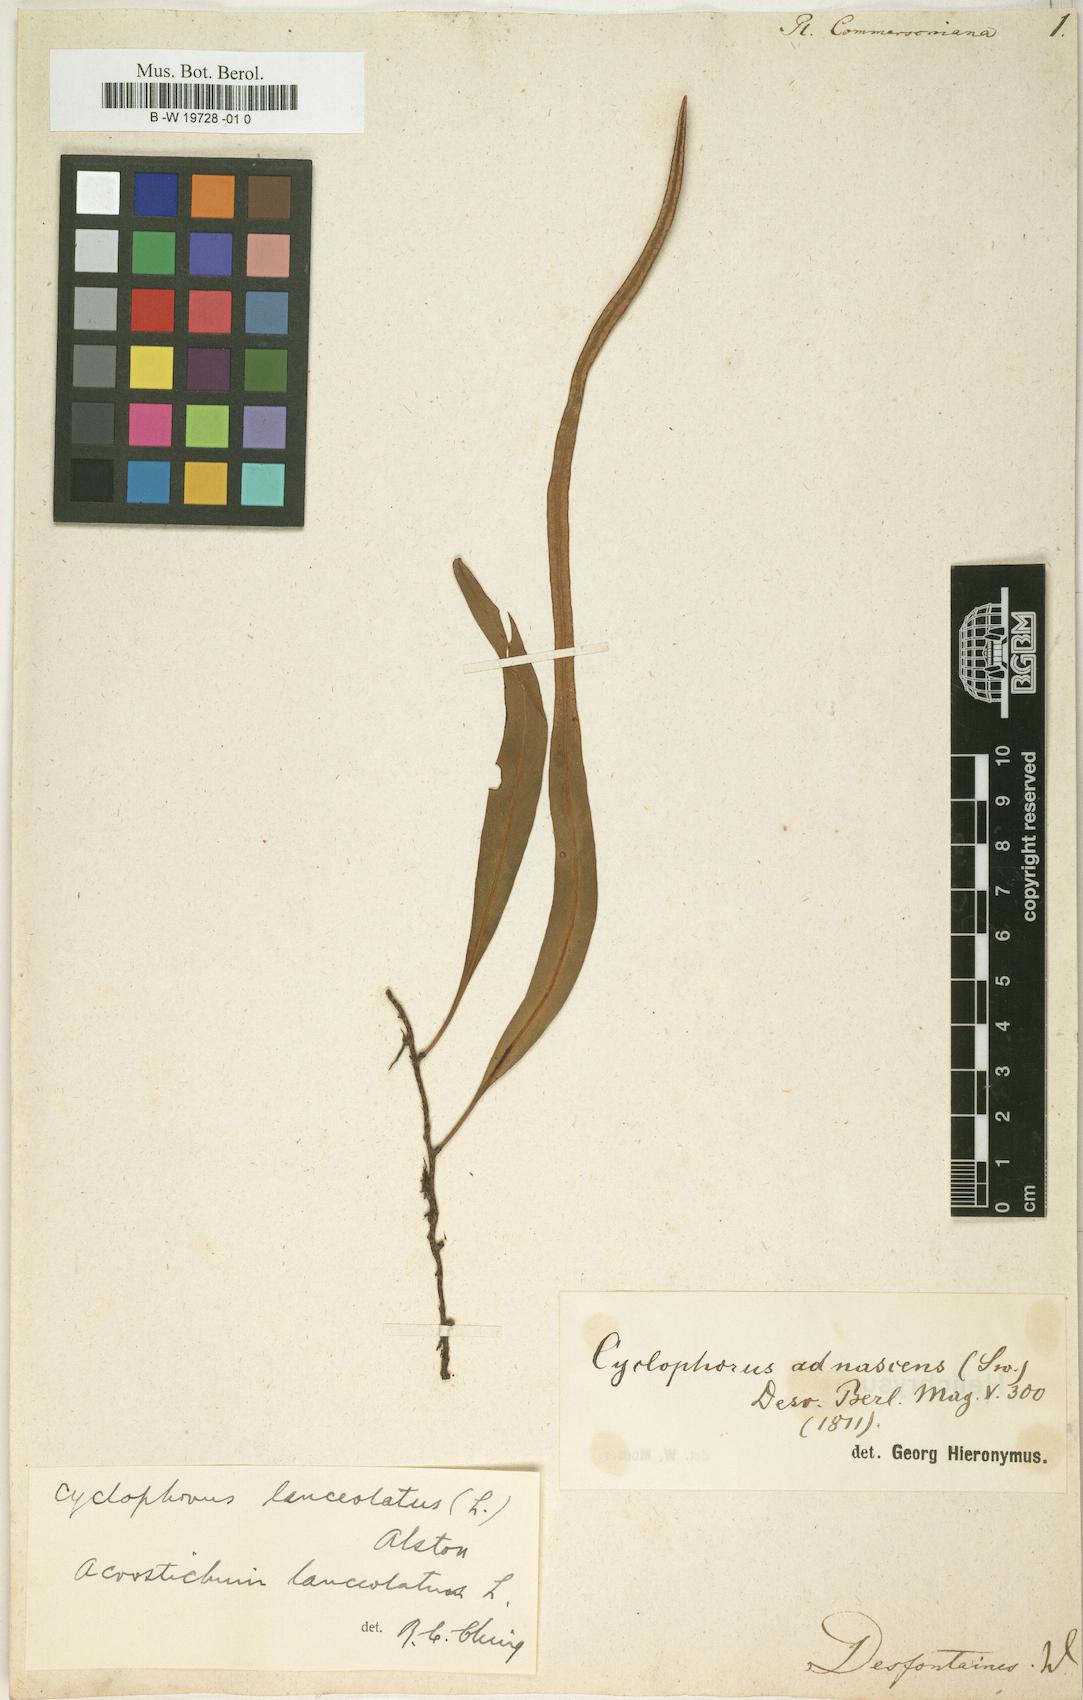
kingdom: Plantae
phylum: Tracheophyta
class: Polypodiopsida
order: Polypodiales
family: Polypodiaceae
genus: Pleopeltis
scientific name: Pleopeltis
